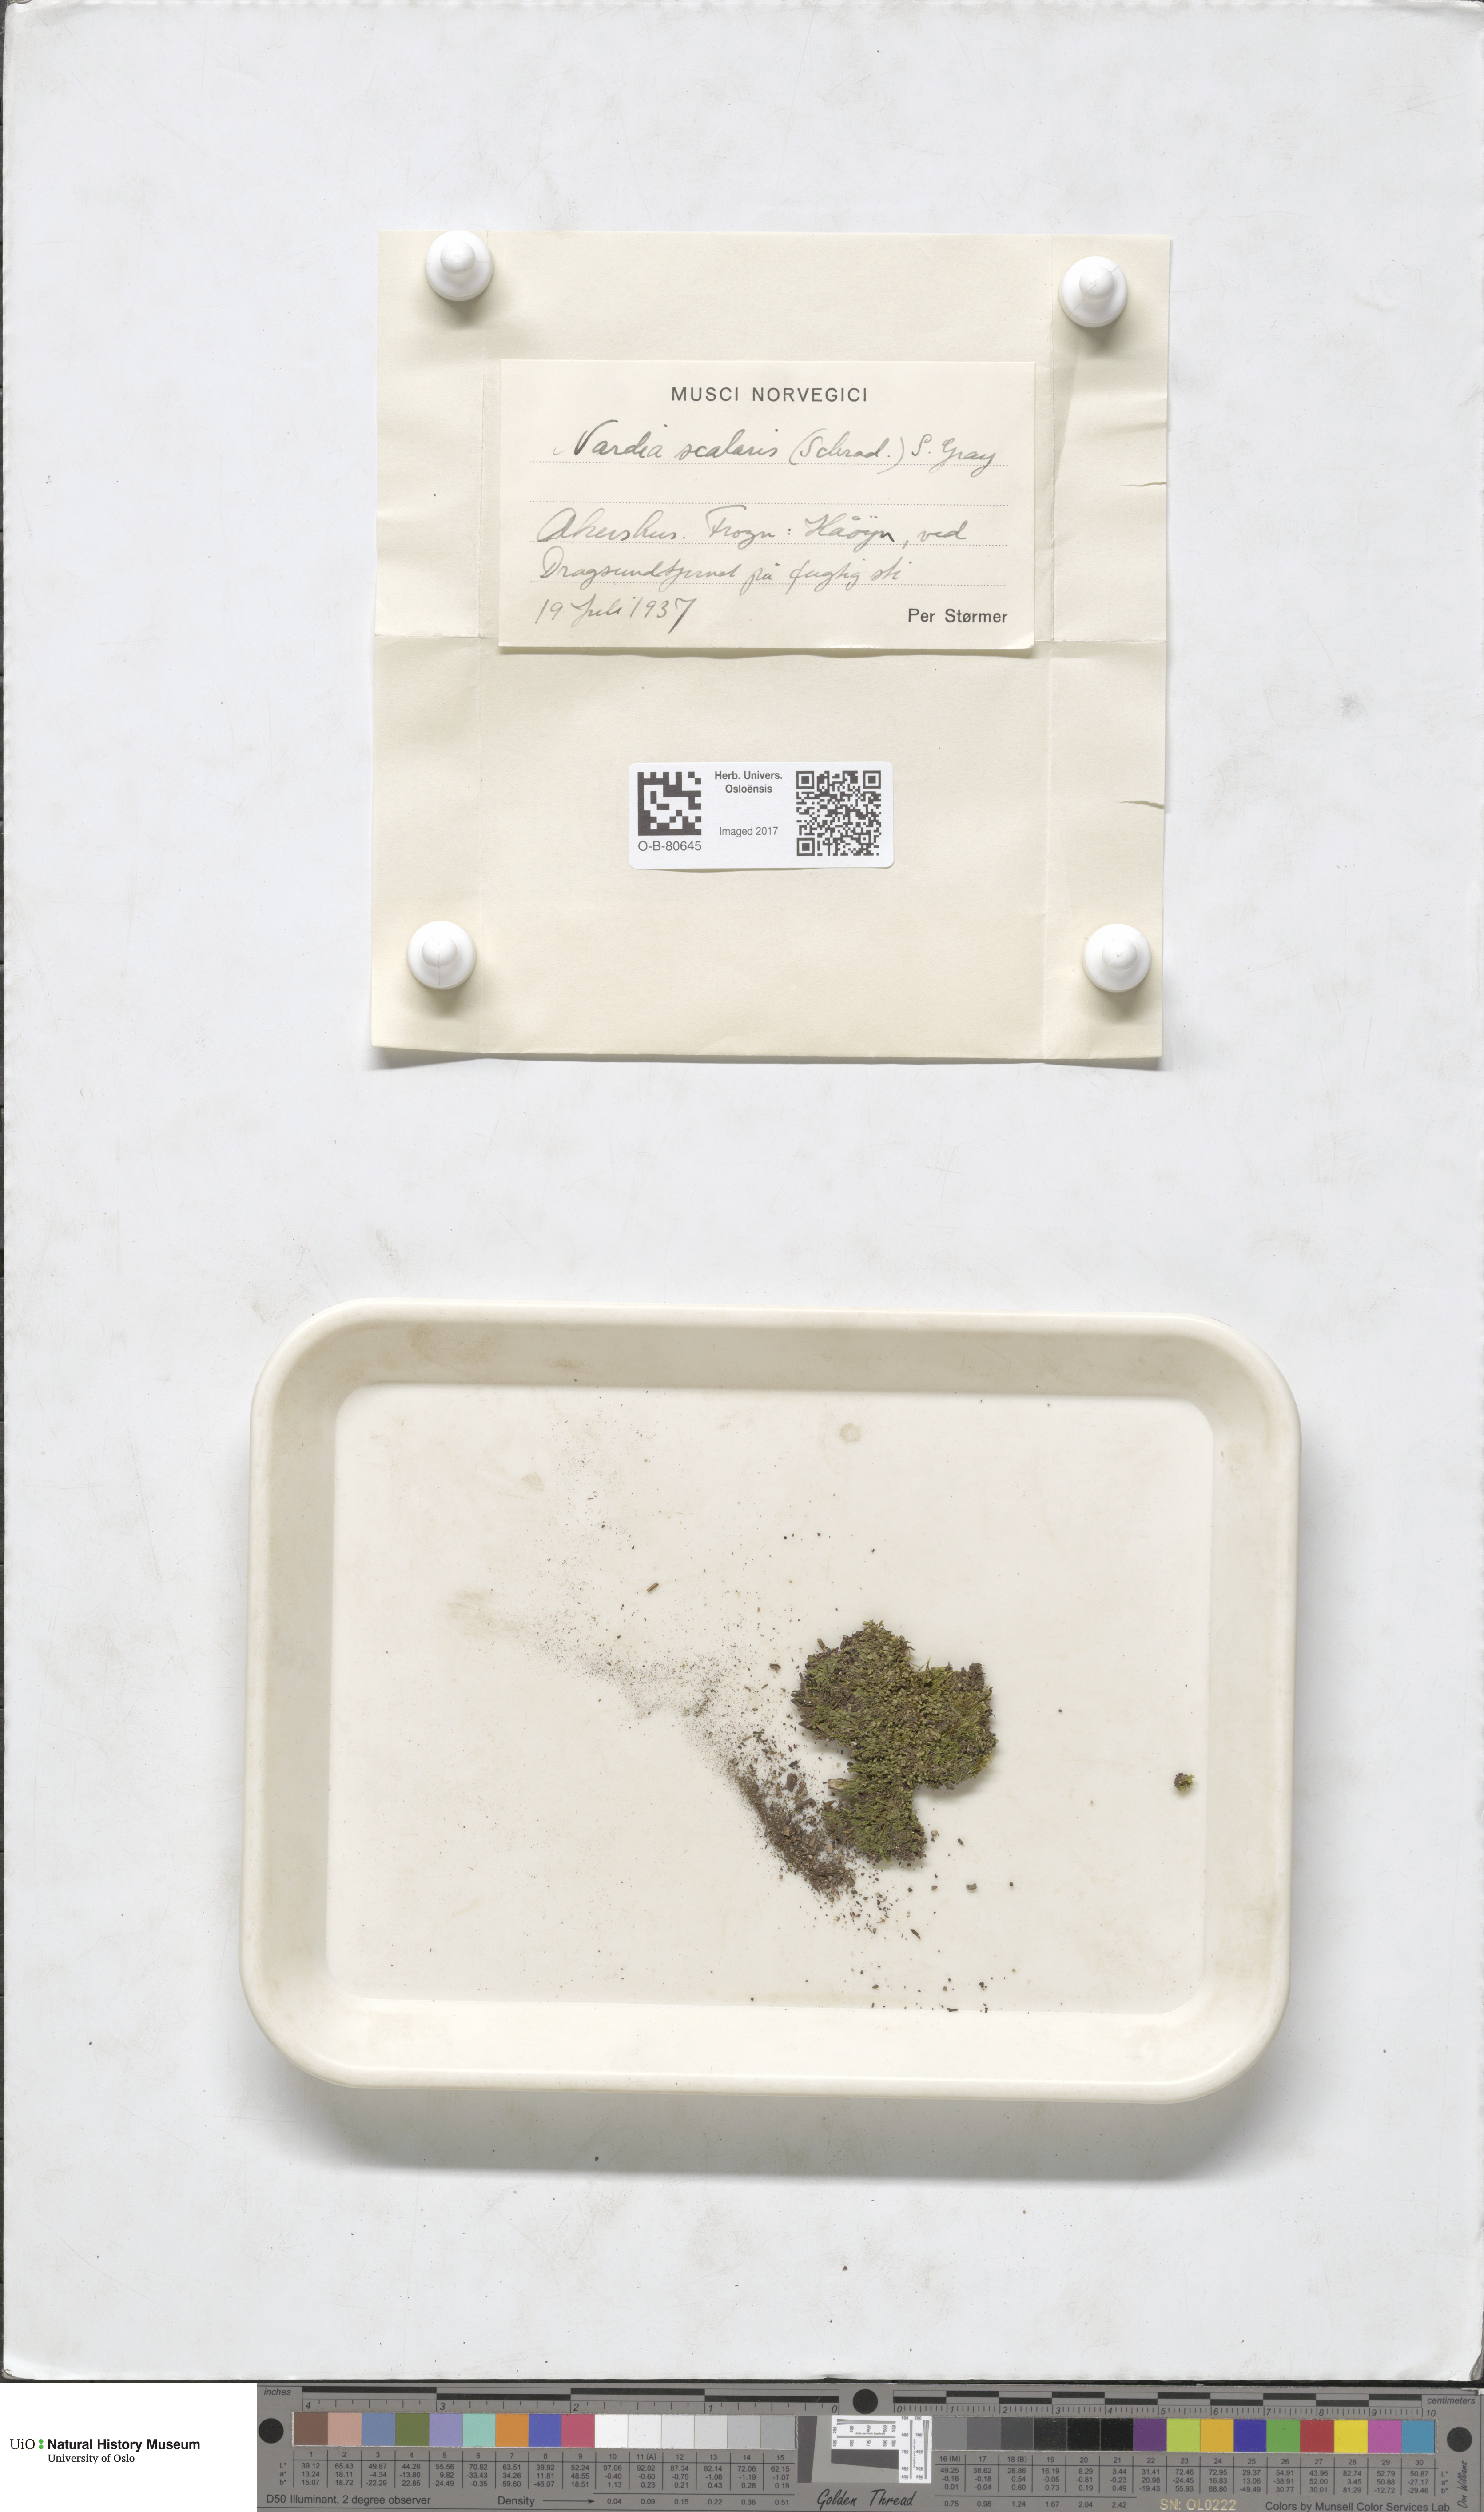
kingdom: Plantae
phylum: Marchantiophyta
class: Jungermanniopsida
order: Jungermanniales
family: Gymnomitriaceae
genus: Nardia
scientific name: Nardia scalaris
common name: Ladder flapwort
